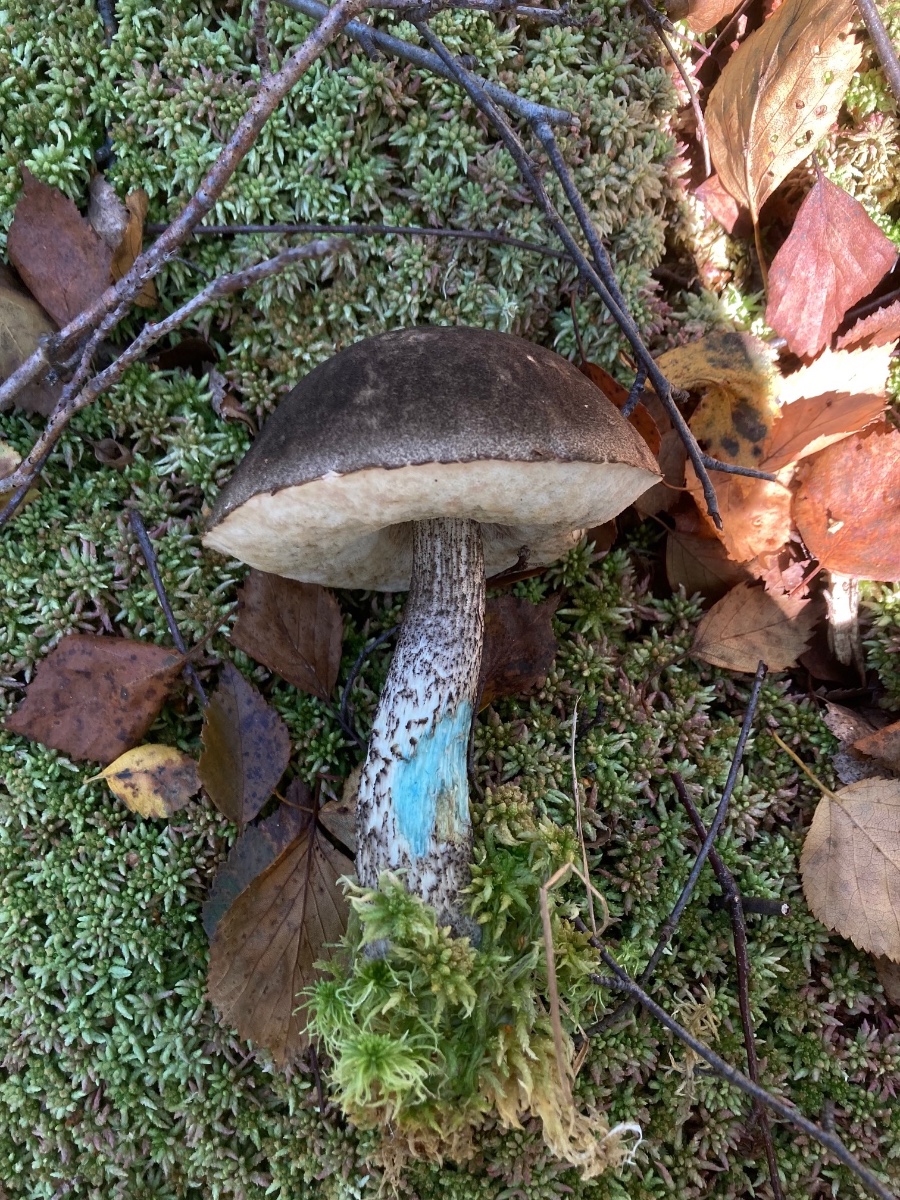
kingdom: Fungi
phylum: Basidiomycota
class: Agaricomycetes
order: Boletales
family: Boletaceae
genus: Leccinum
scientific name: Leccinum variicolor
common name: flammet skælrørhat
